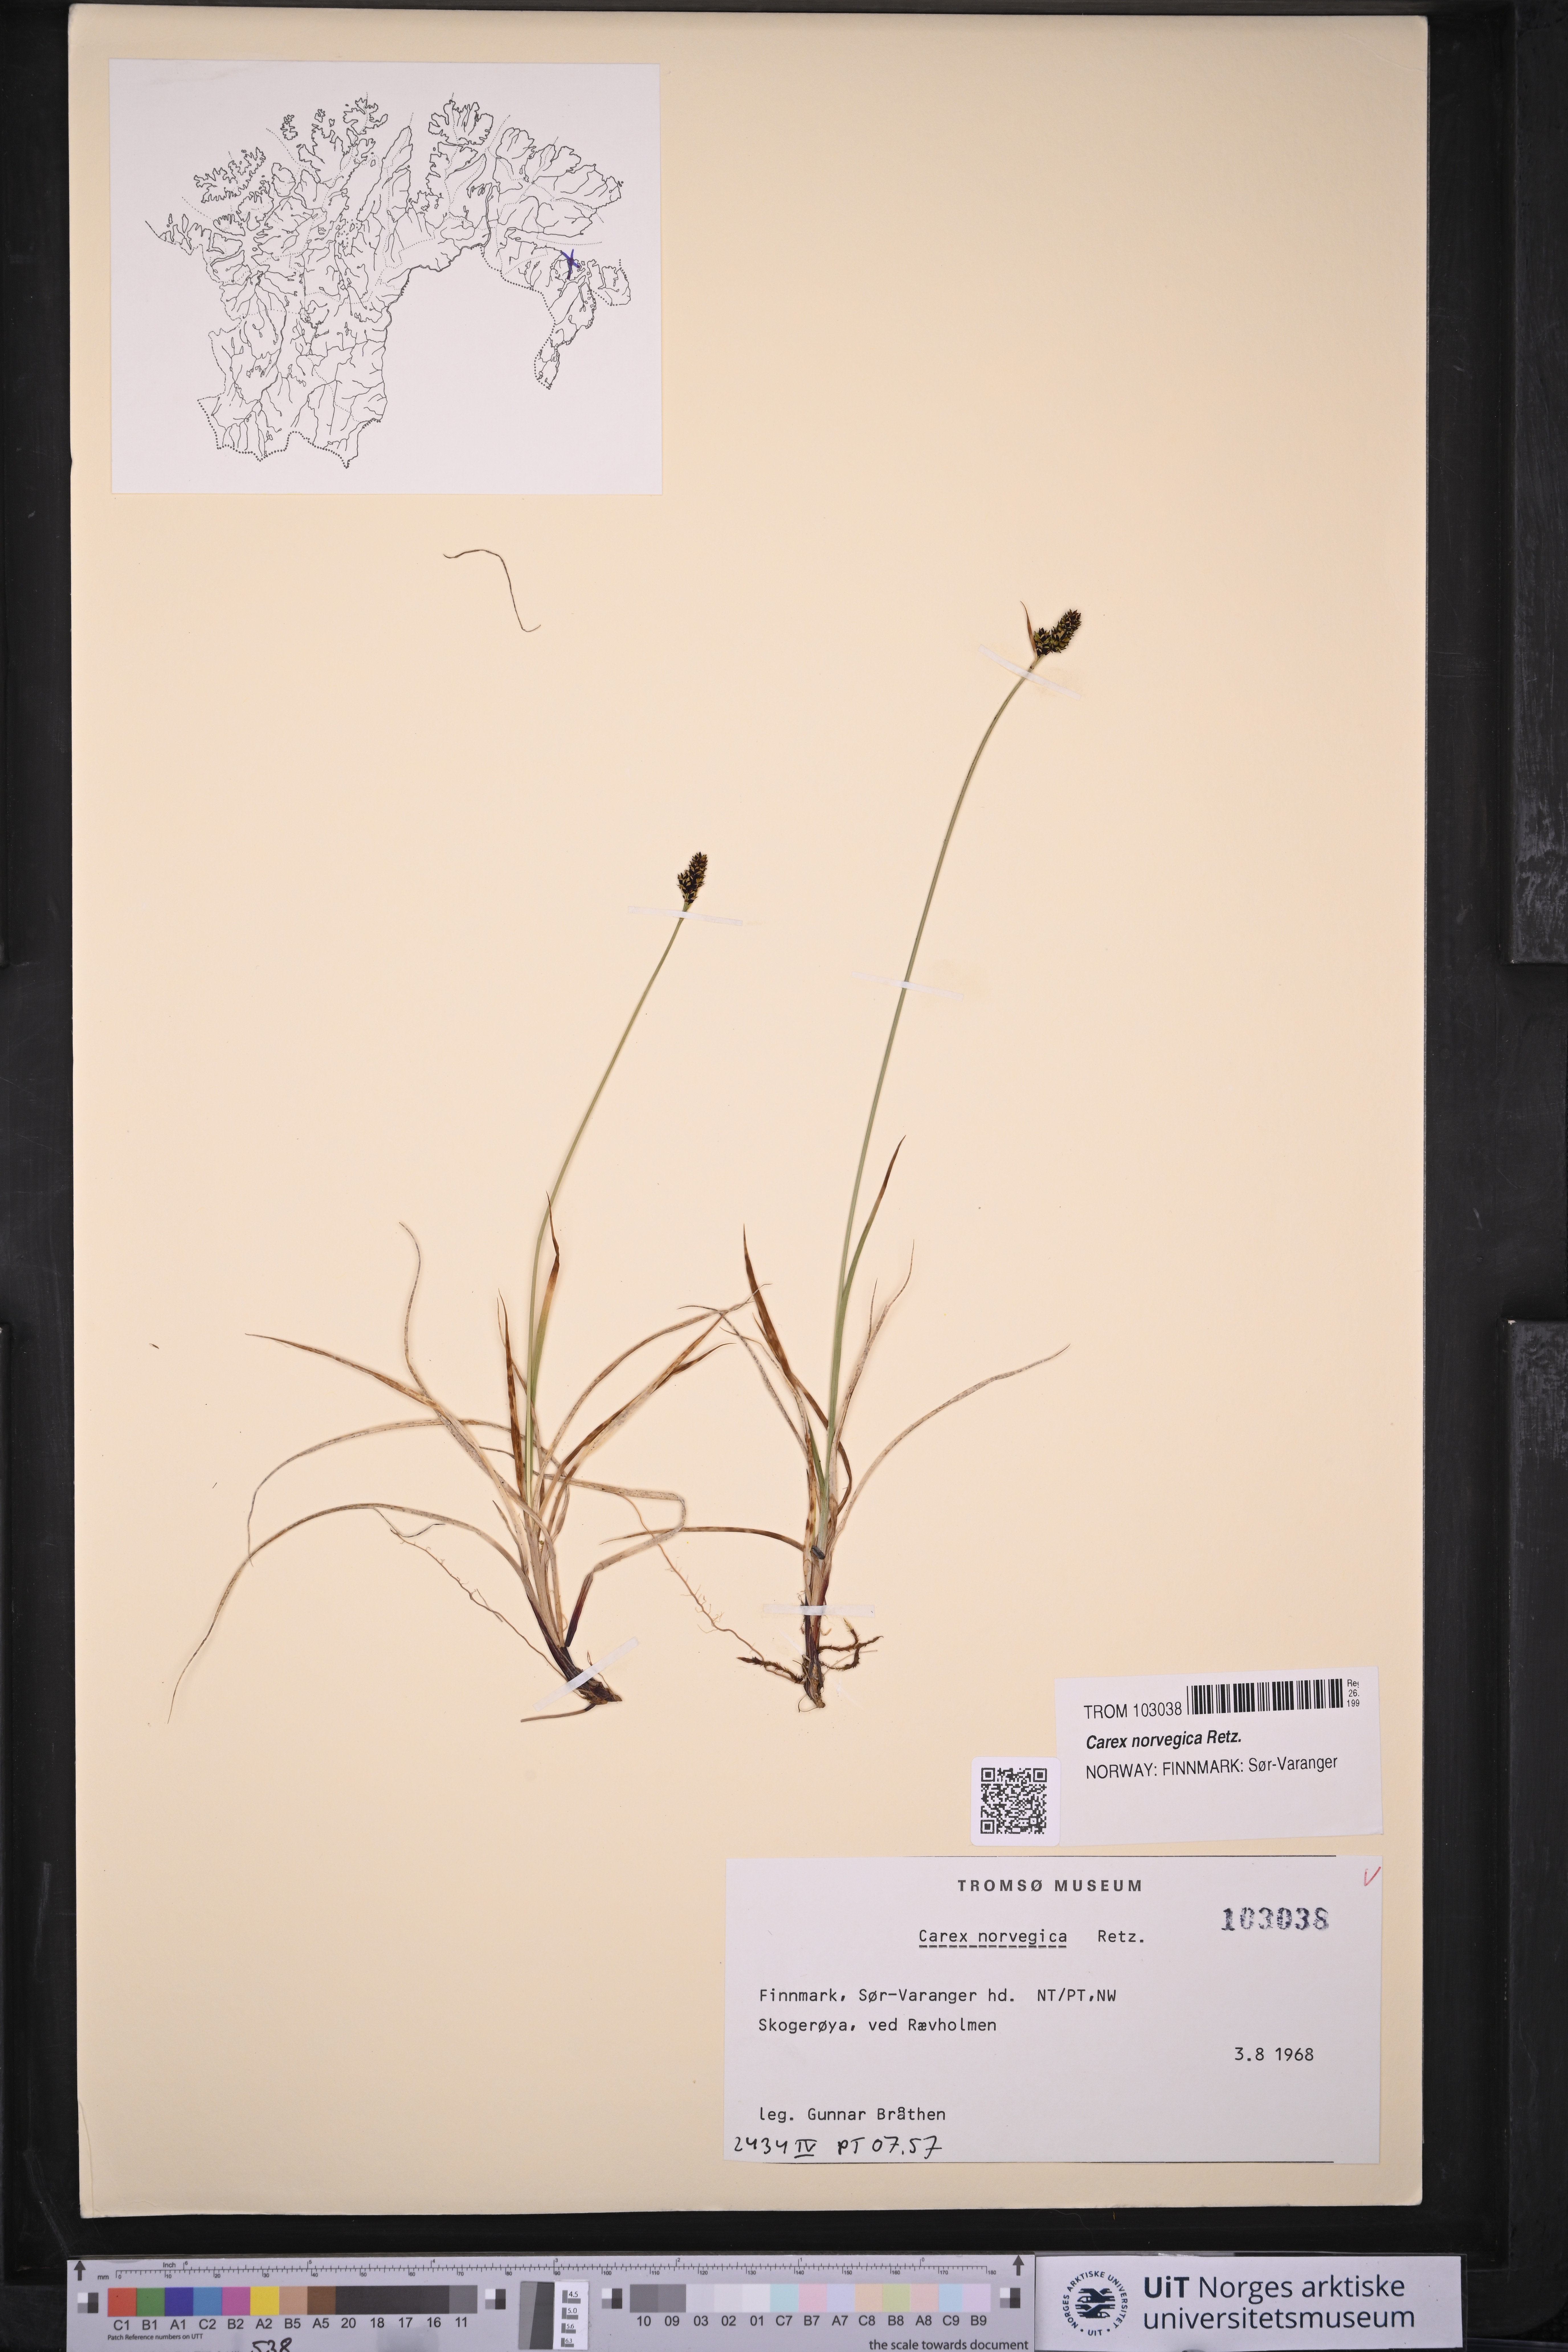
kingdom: Plantae
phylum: Tracheophyta
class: Liliopsida
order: Poales
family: Cyperaceae
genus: Carex
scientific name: Carex norvegica
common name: Close-headed alpine-sedge
